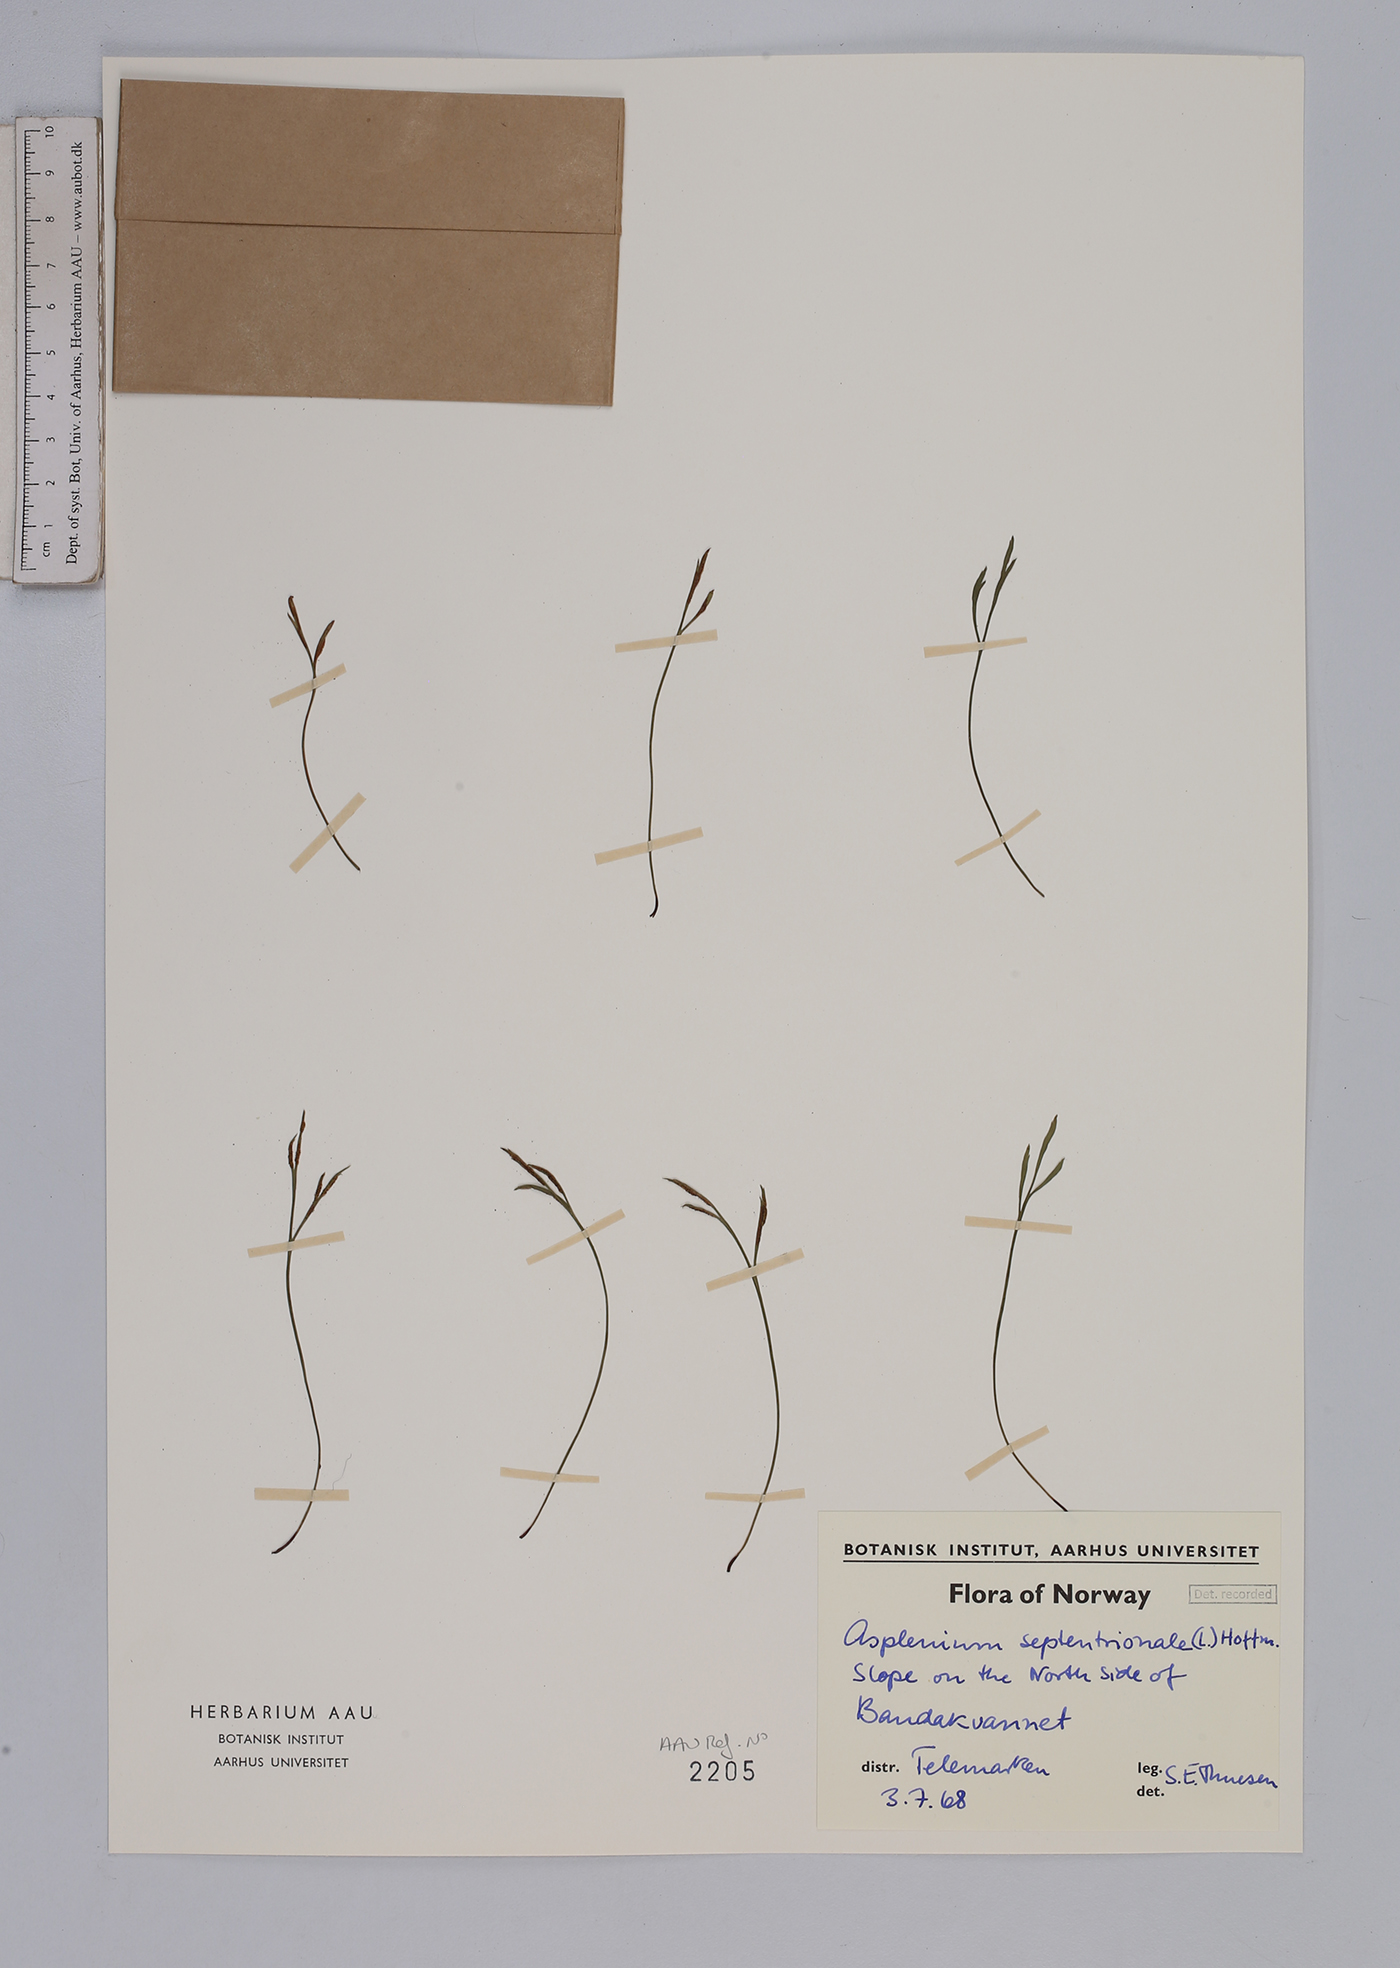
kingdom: Plantae
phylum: Tracheophyta
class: Polypodiopsida
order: Polypodiales
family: Aspleniaceae
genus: Asplenium
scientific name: Asplenium septentrionale
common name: Forked spleenwort
